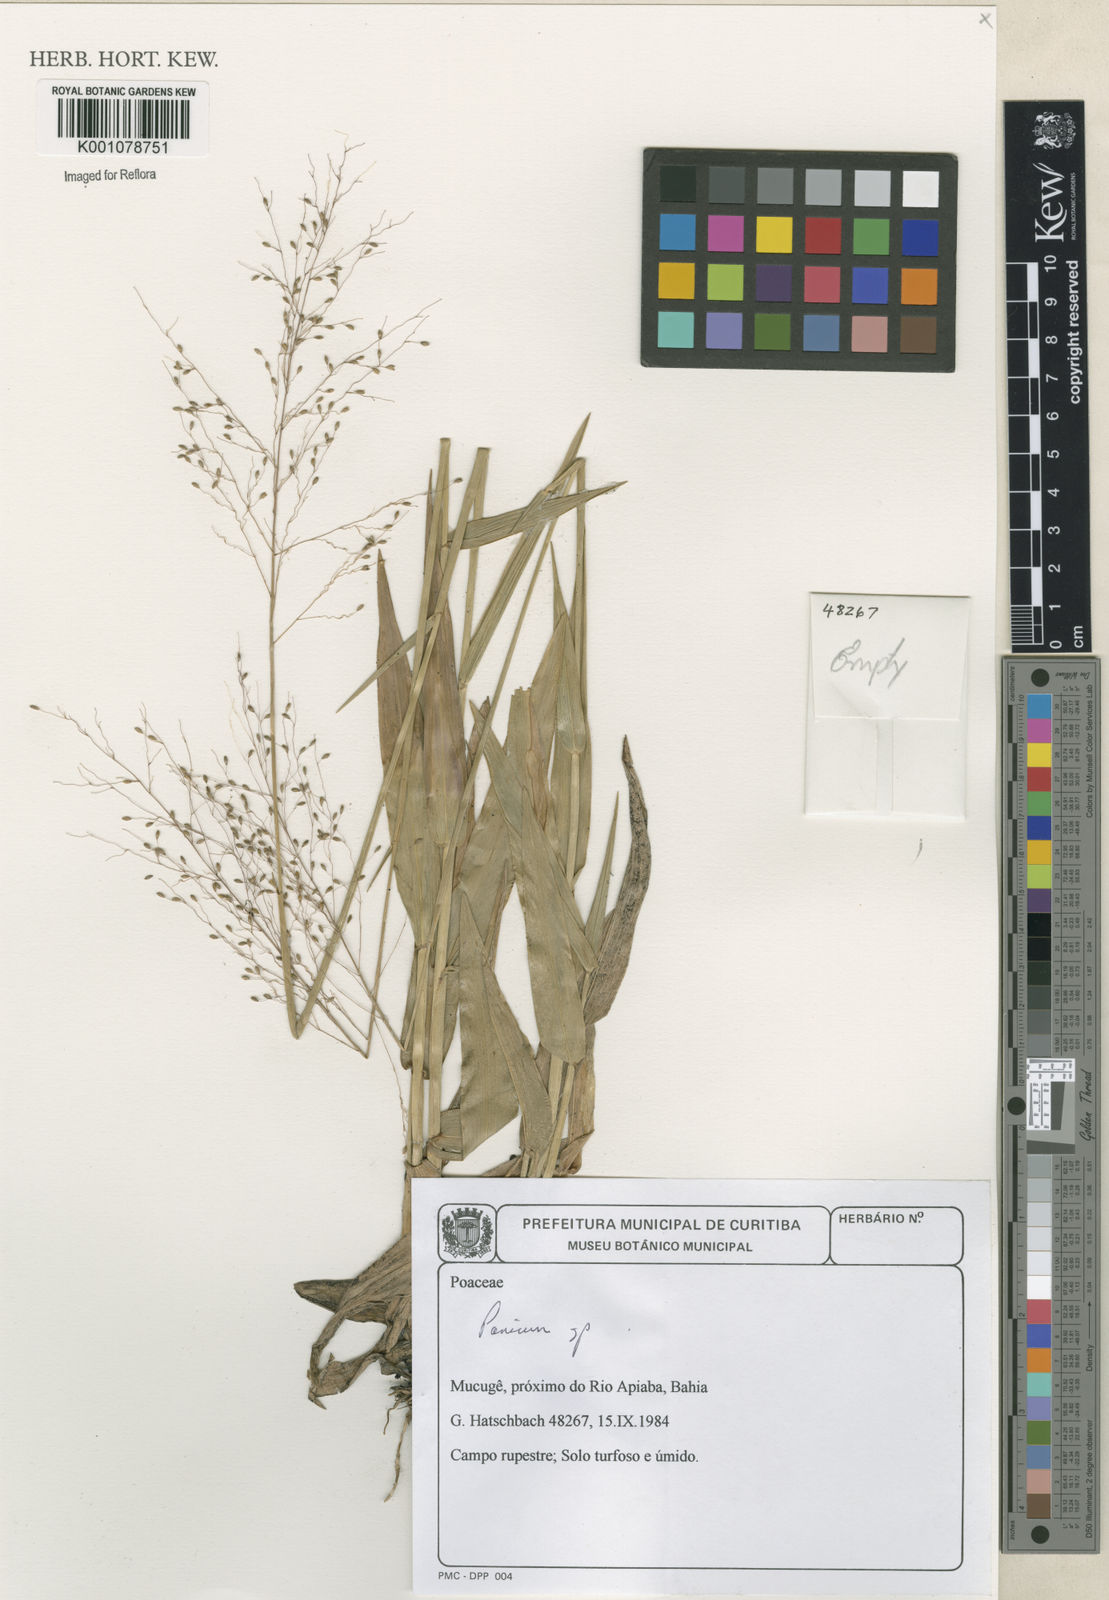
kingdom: Plantae
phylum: Tracheophyta
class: Liliopsida
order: Poales
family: Poaceae
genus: Panicum
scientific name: Panicum
